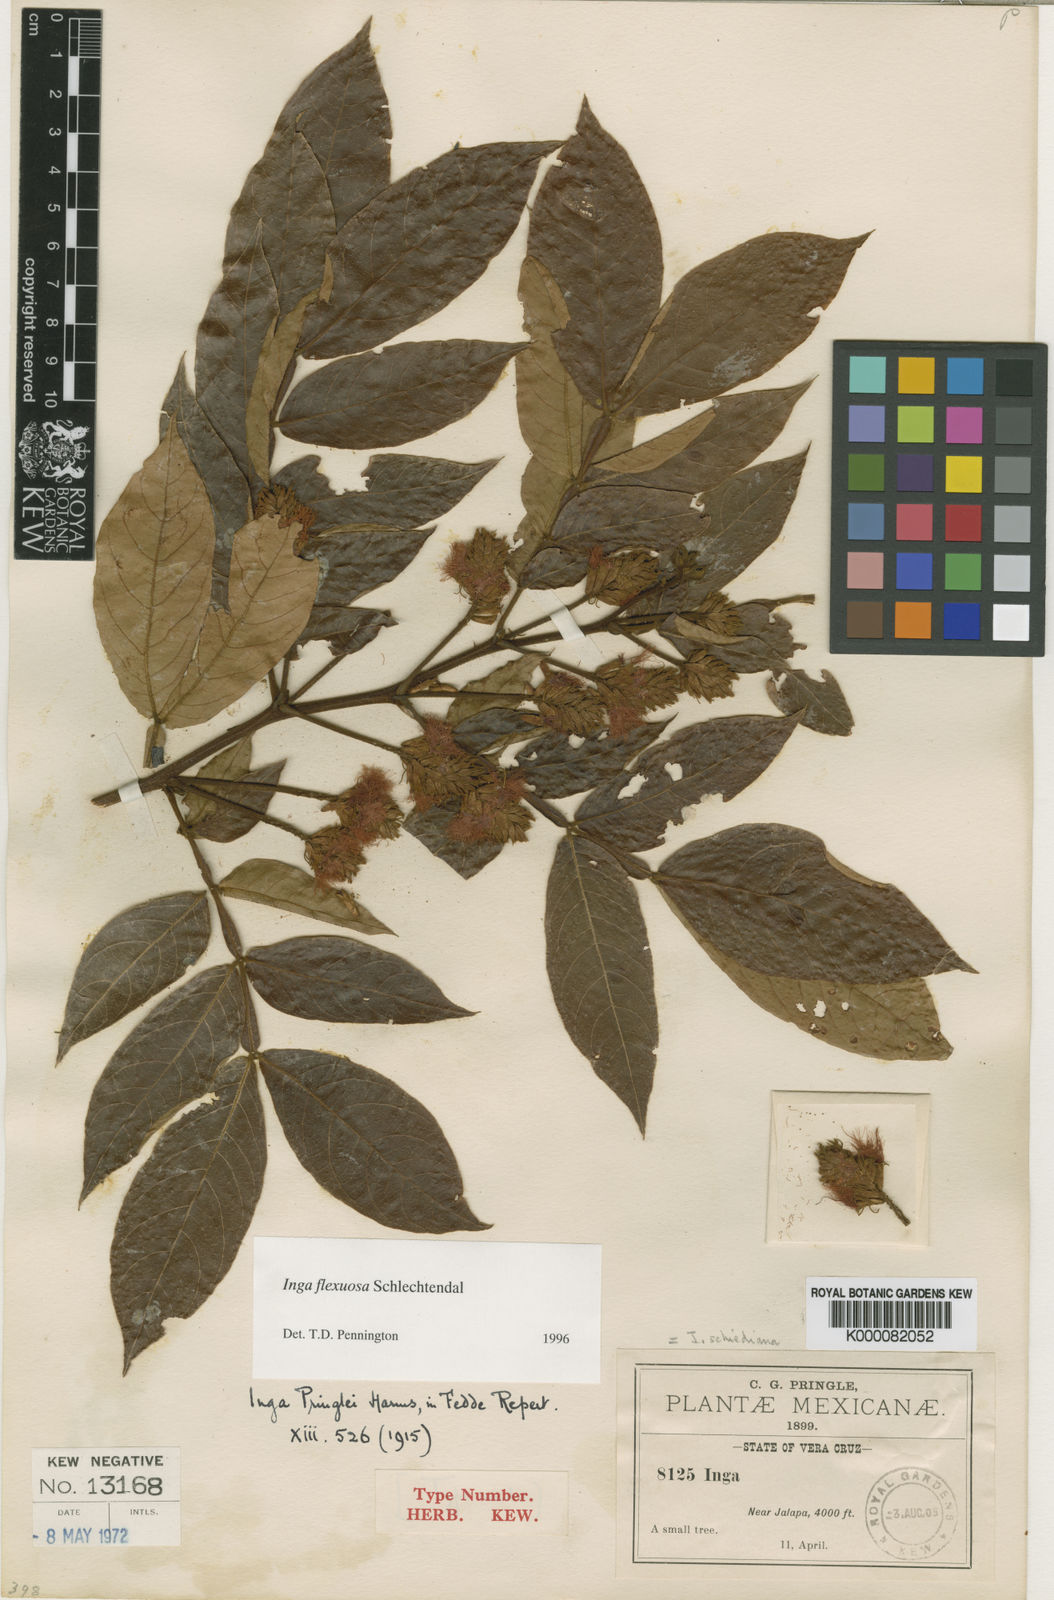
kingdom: Plantae
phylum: Tracheophyta
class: Magnoliopsida
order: Fabales
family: Fabaceae
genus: Inga
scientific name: Inga flexuosa
